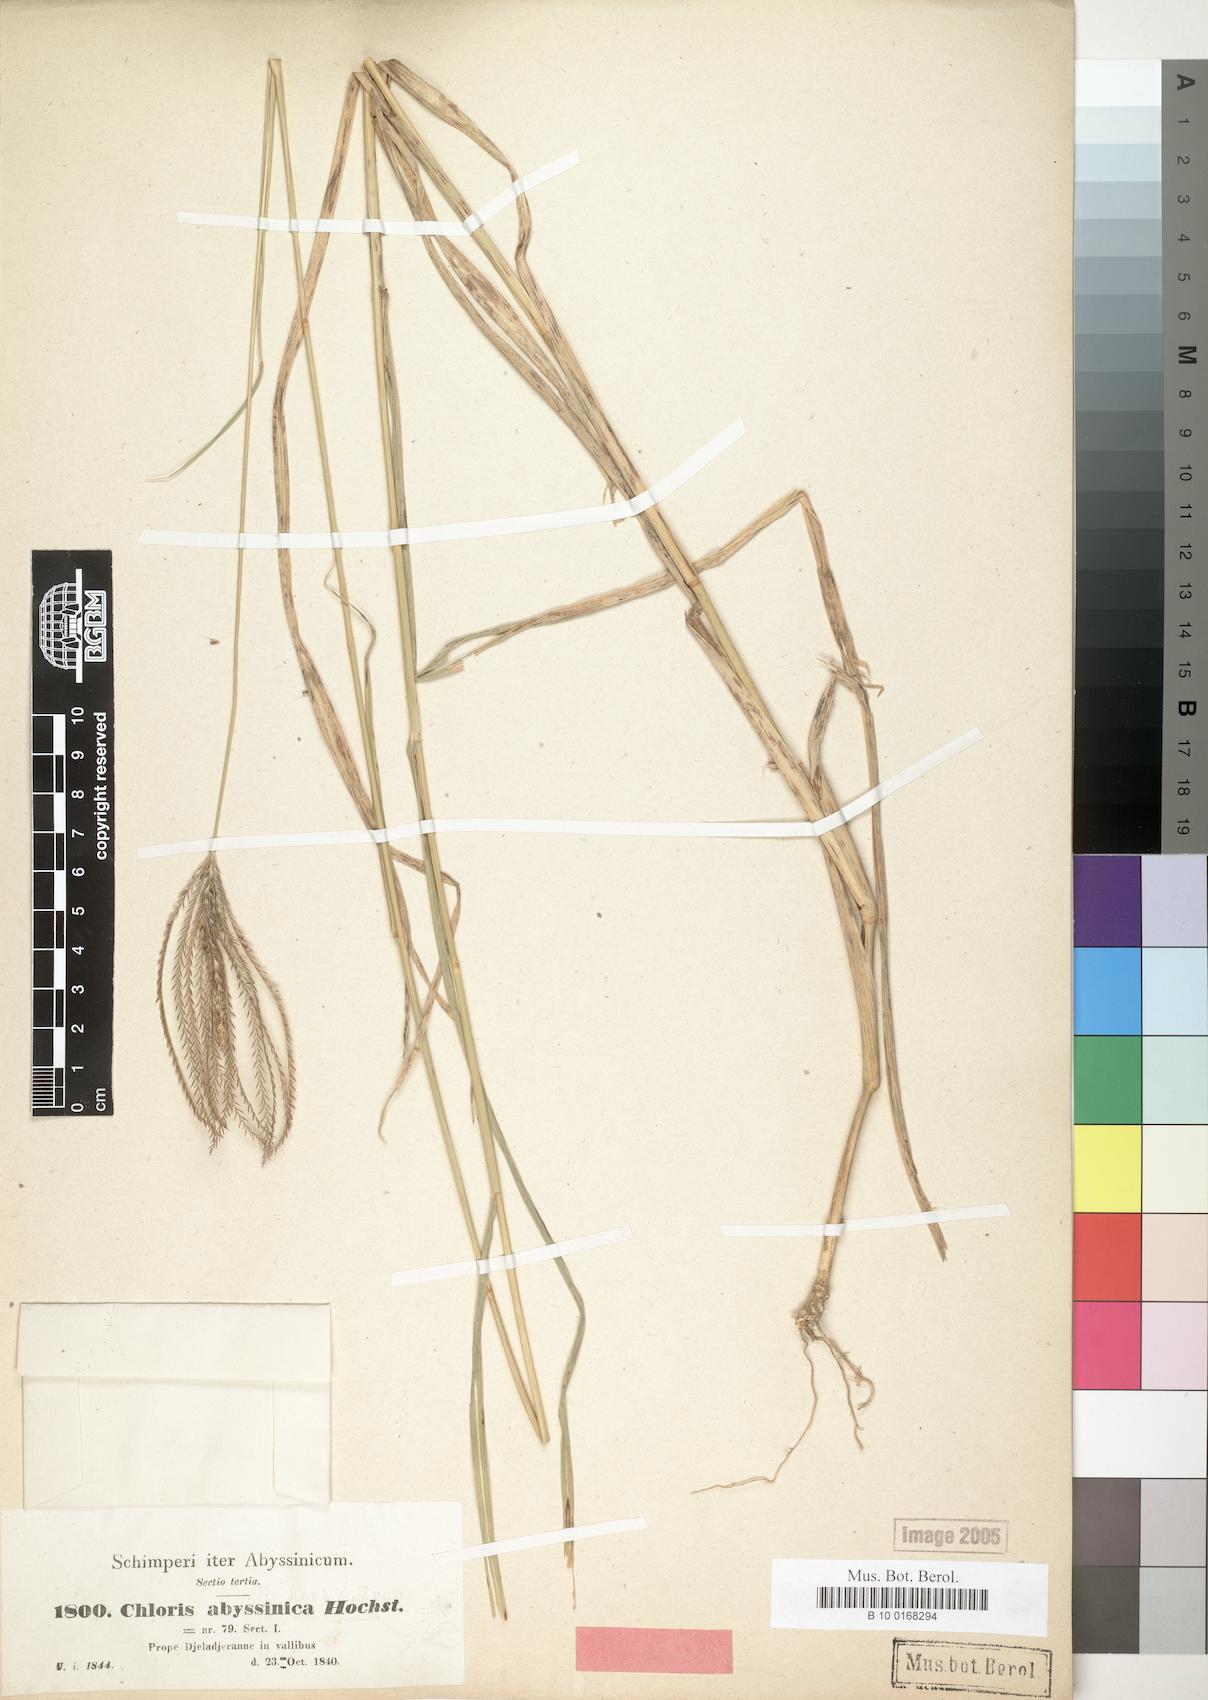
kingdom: Plantae
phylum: Tracheophyta
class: Liliopsida
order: Poales
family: Poaceae
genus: Chloris
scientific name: Chloris gayana
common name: Rhodes grass
